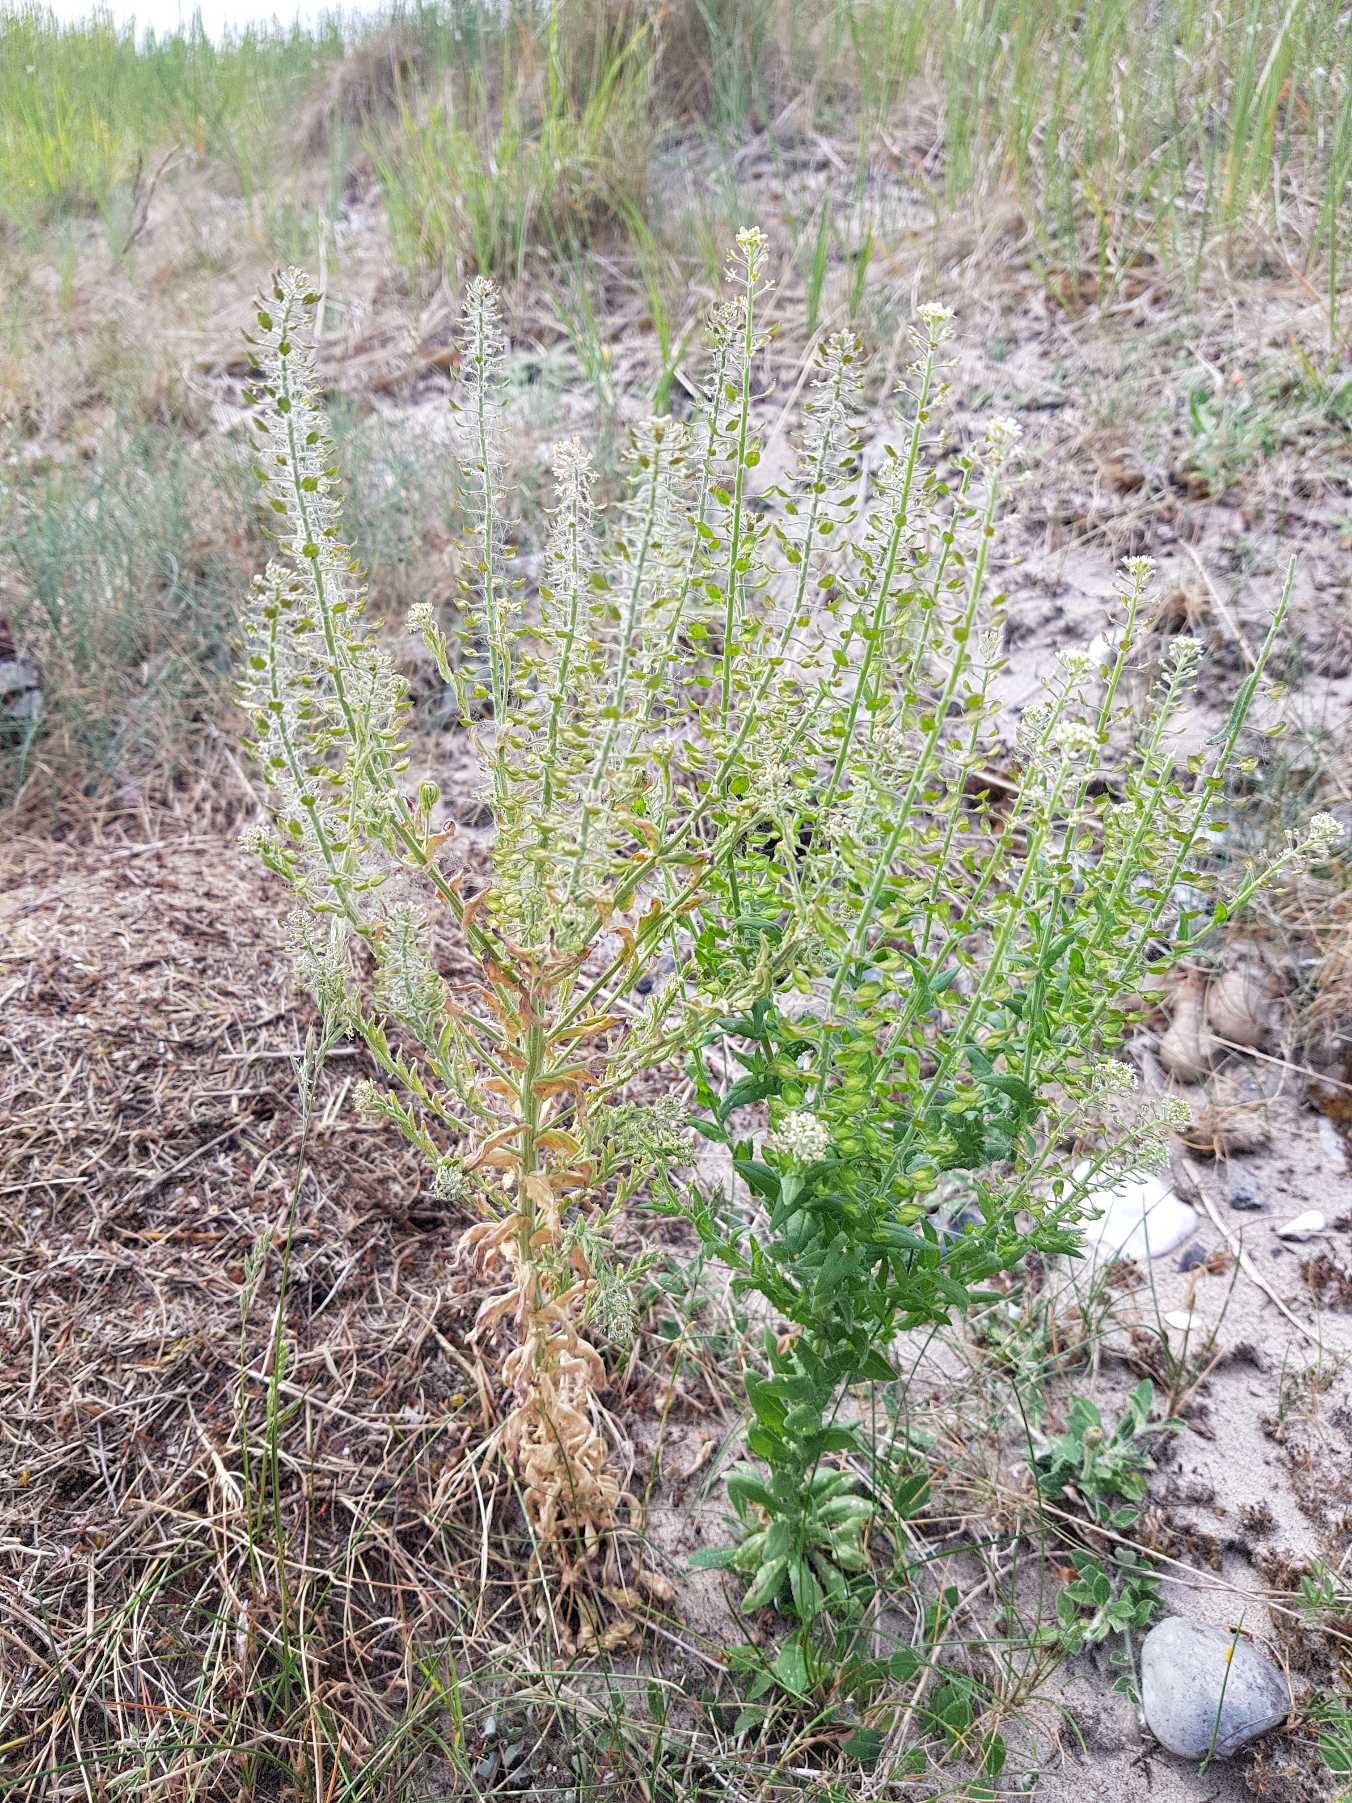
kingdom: Plantae
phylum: Tracheophyta
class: Magnoliopsida
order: Brassicales
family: Brassicaceae
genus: Lepidium
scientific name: Lepidium campestre
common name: Salomons lysestage
